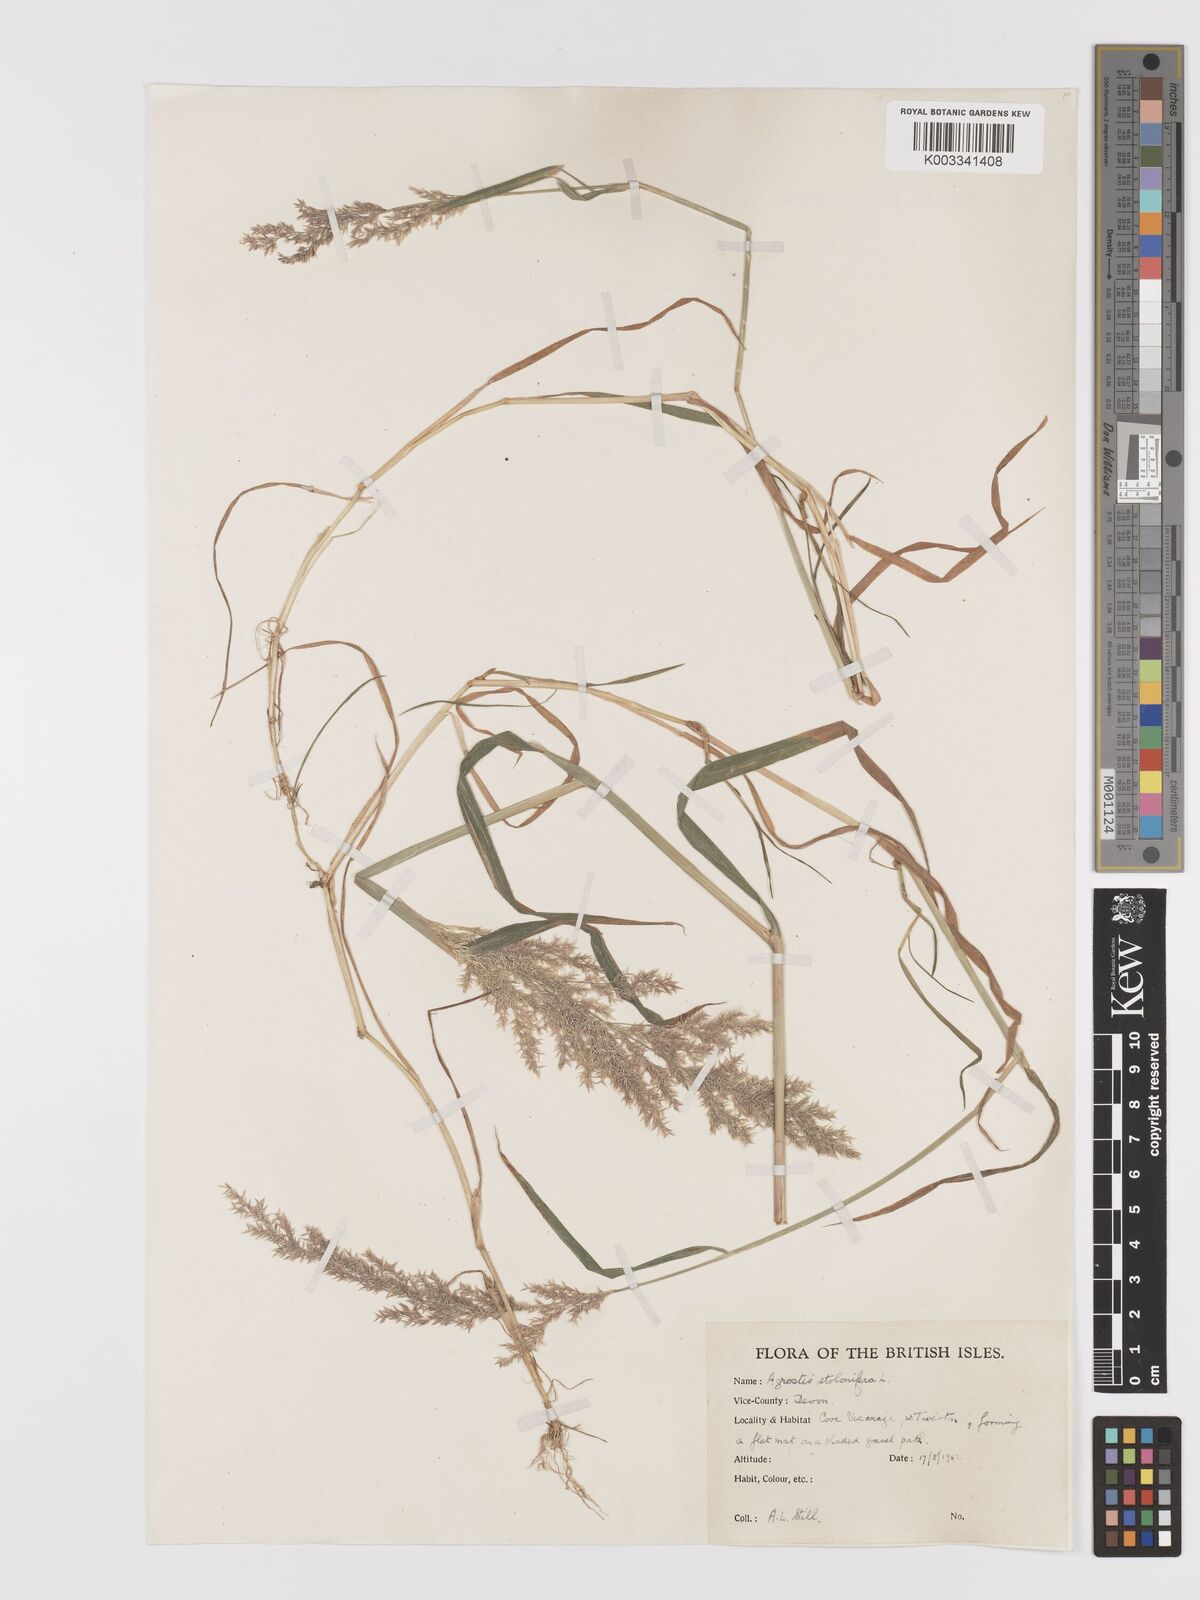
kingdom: Plantae
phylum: Tracheophyta
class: Liliopsida
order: Poales
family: Poaceae
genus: Agrostis
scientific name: Agrostis stolonifera
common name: Creeping bentgrass
